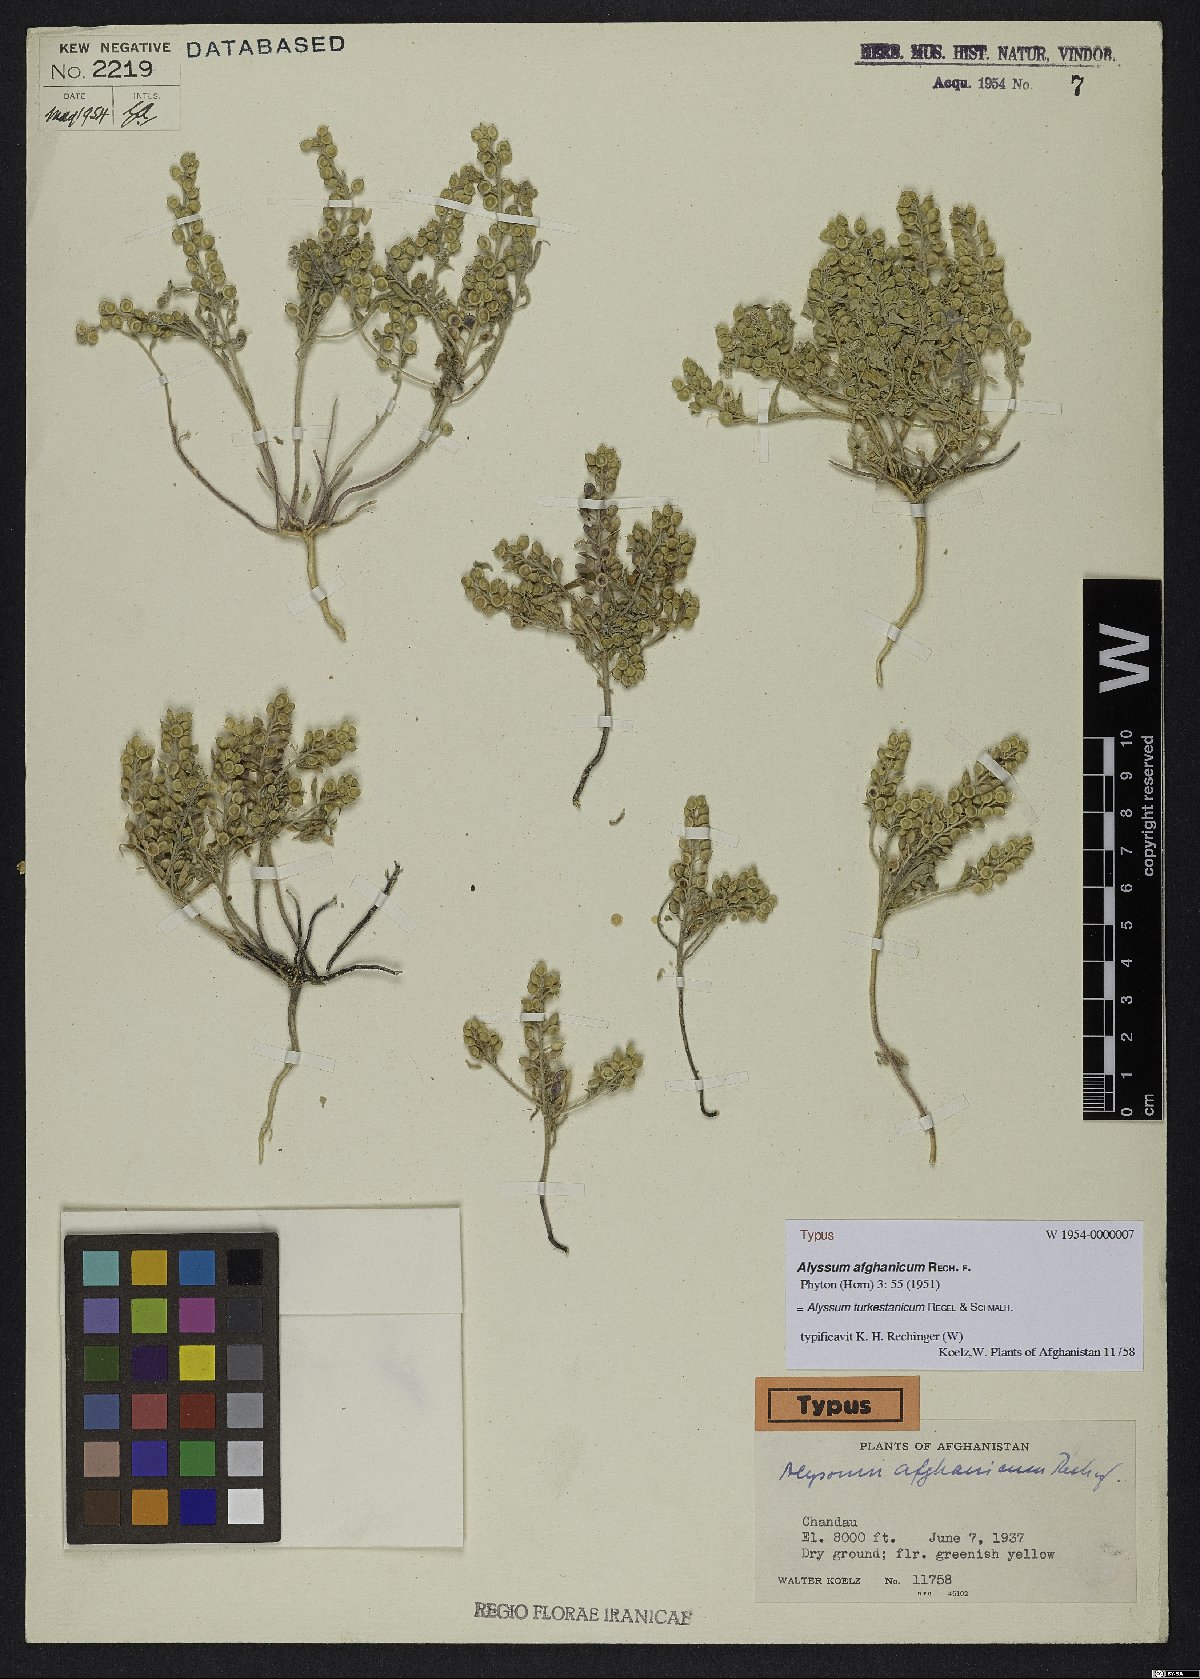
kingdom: Plantae
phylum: Tracheophyta
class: Magnoliopsida
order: Brassicales
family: Brassicaceae
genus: Alyssum
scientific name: Alyssum turkestanicum
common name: Desert alyssum
